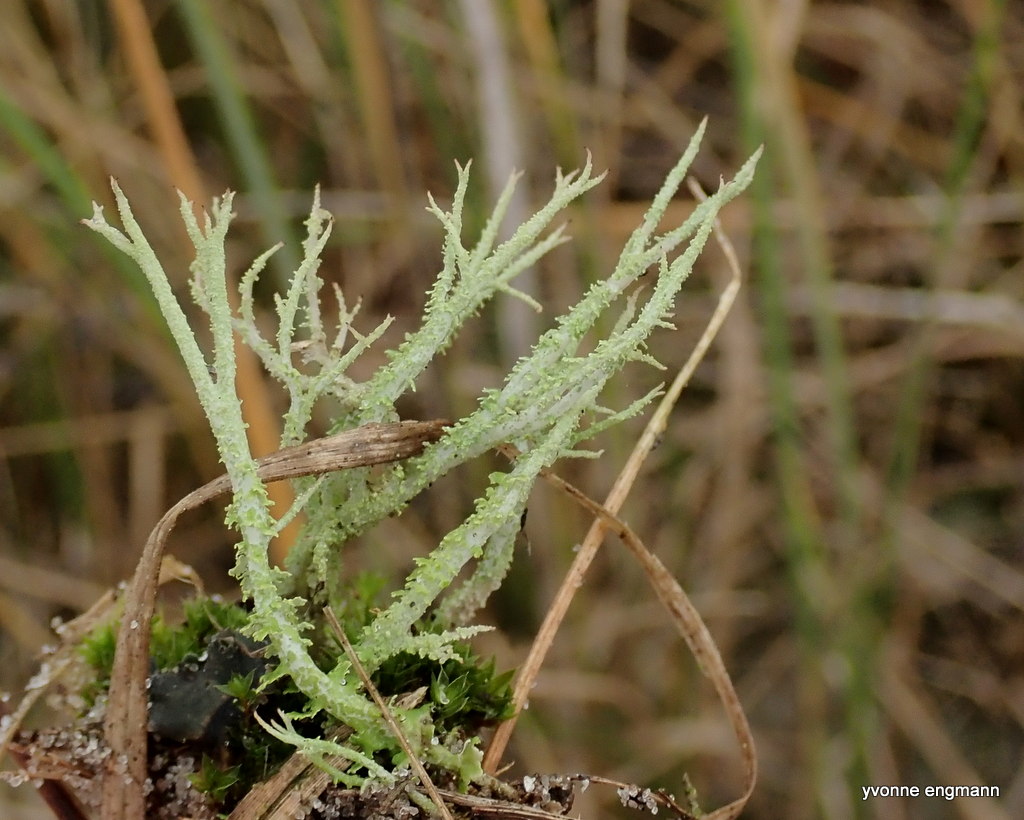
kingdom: Fungi
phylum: Ascomycota
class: Lecanoromycetes
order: Lecanorales
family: Cladoniaceae
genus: Cladonia
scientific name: Cladonia scabriuscula
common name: ru bægerlav
